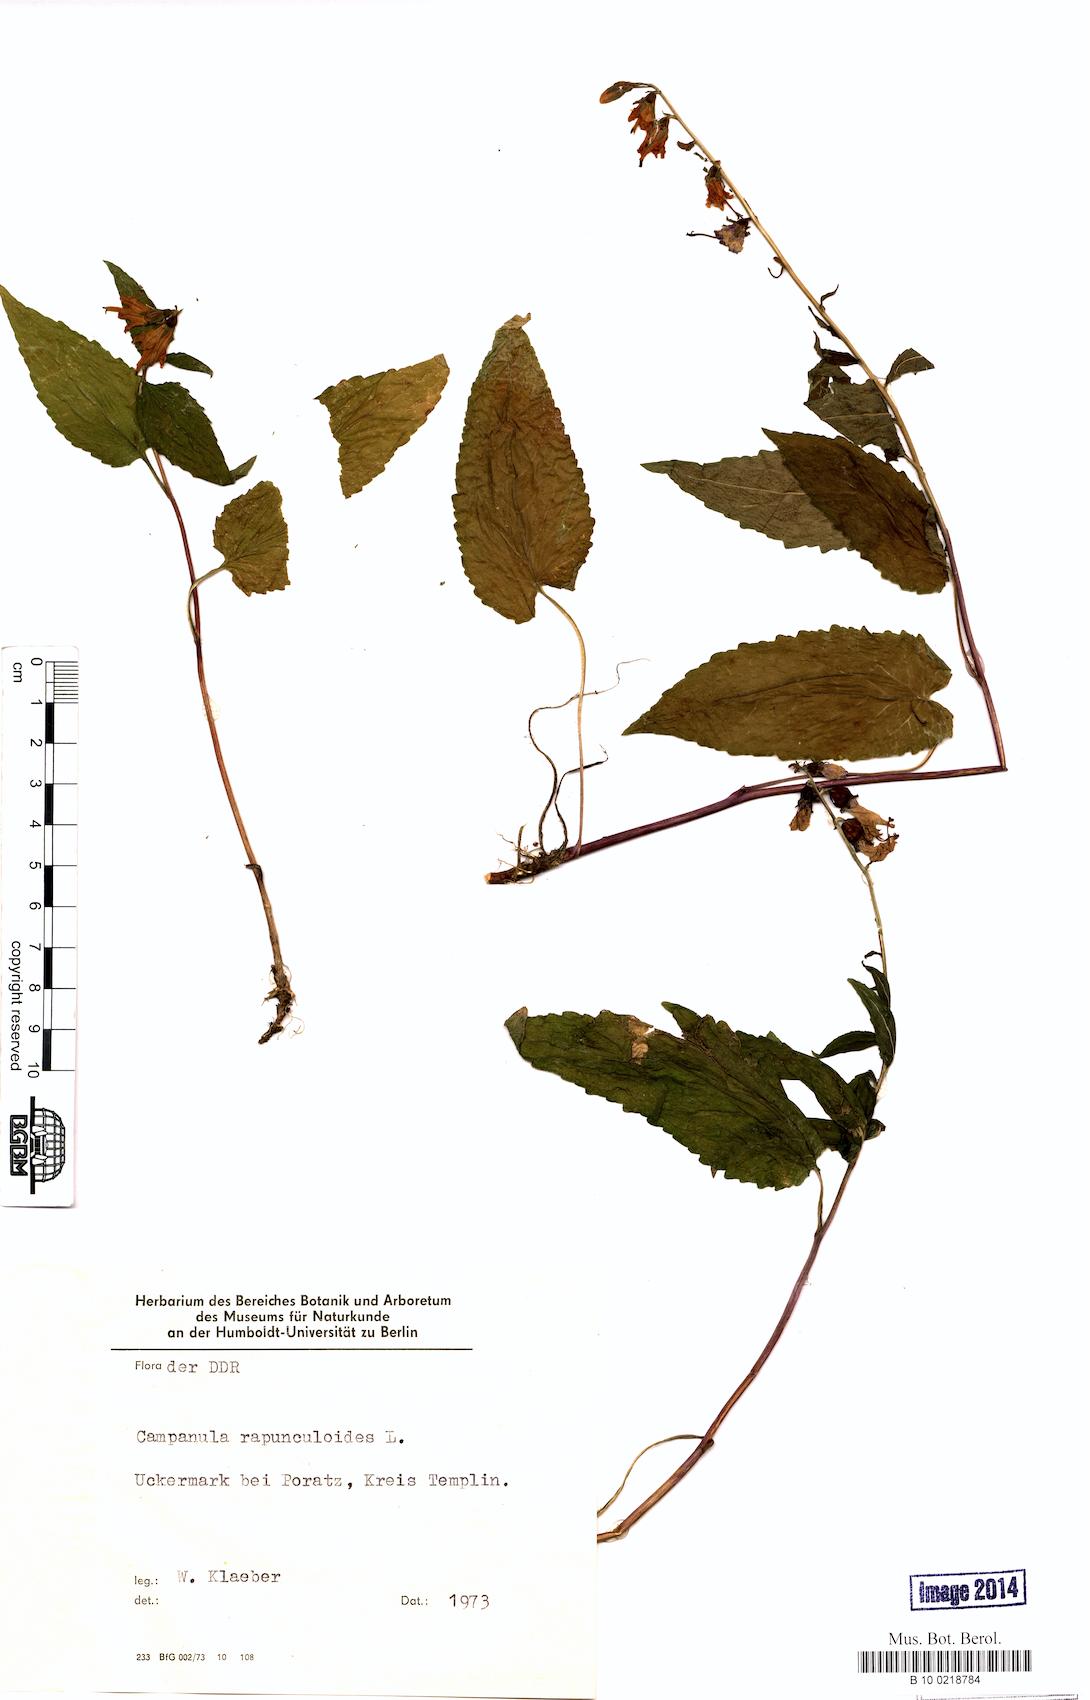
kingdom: Plantae
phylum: Tracheophyta
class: Magnoliopsida
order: Asterales
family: Campanulaceae
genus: Campanula
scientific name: Campanula rapunculoides
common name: Creeping bellflower
